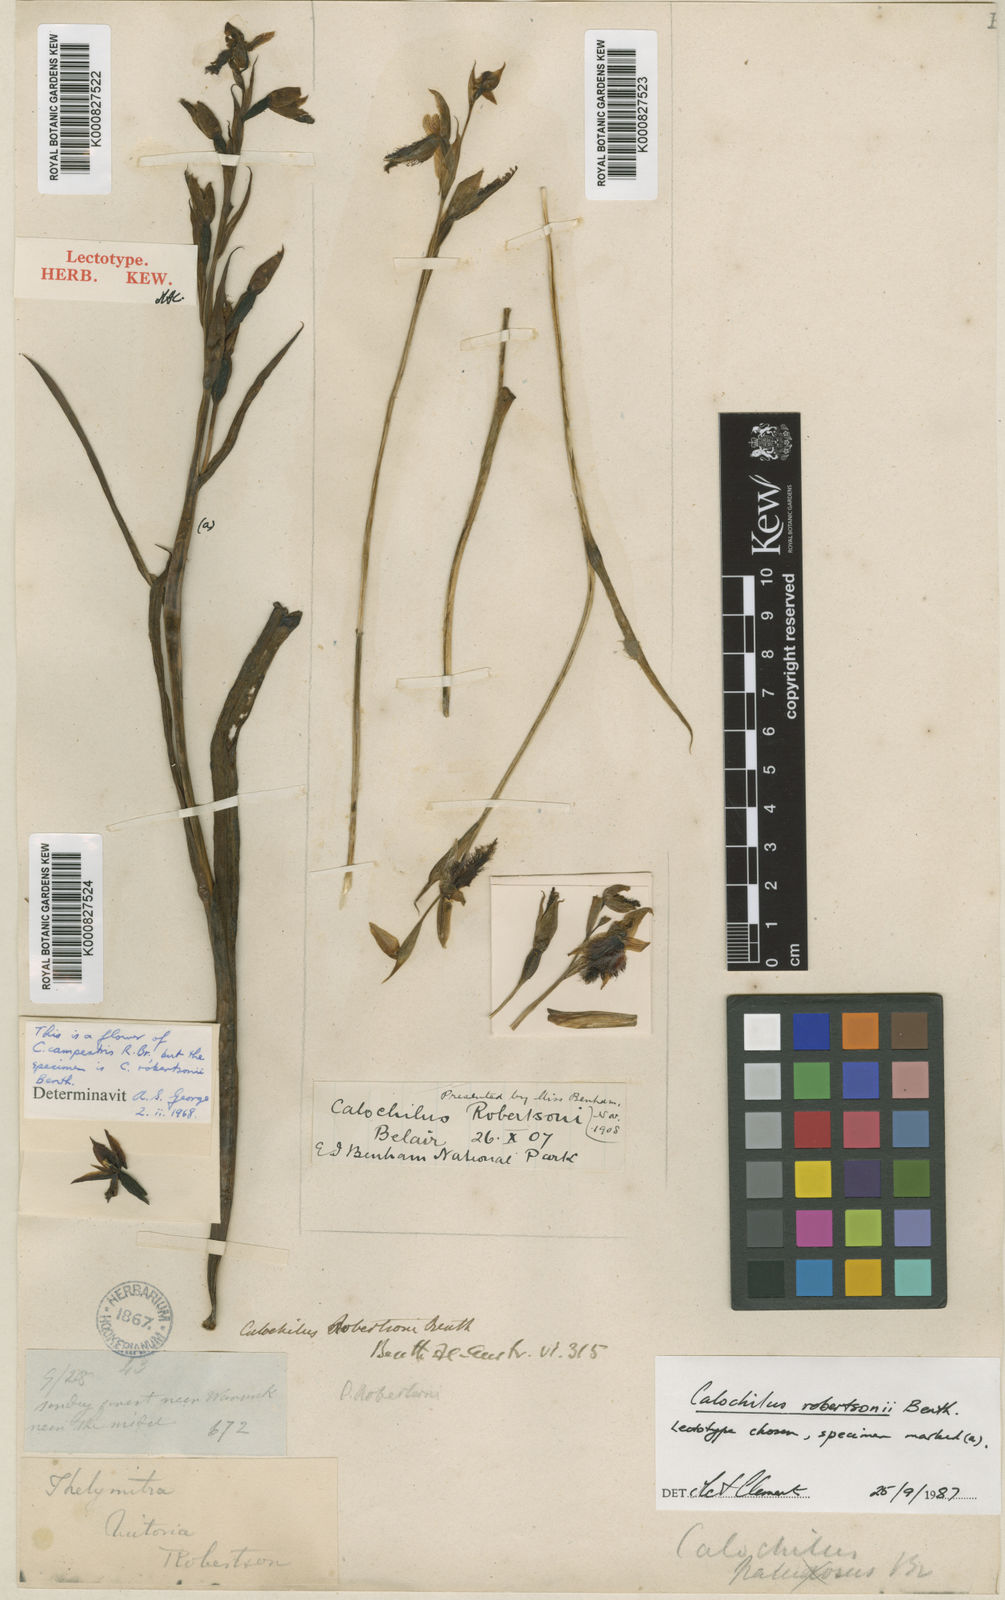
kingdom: Plantae
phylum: Tracheophyta
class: Liliopsida
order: Asparagales
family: Orchidaceae
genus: Calochilus
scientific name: Calochilus robertsonii
